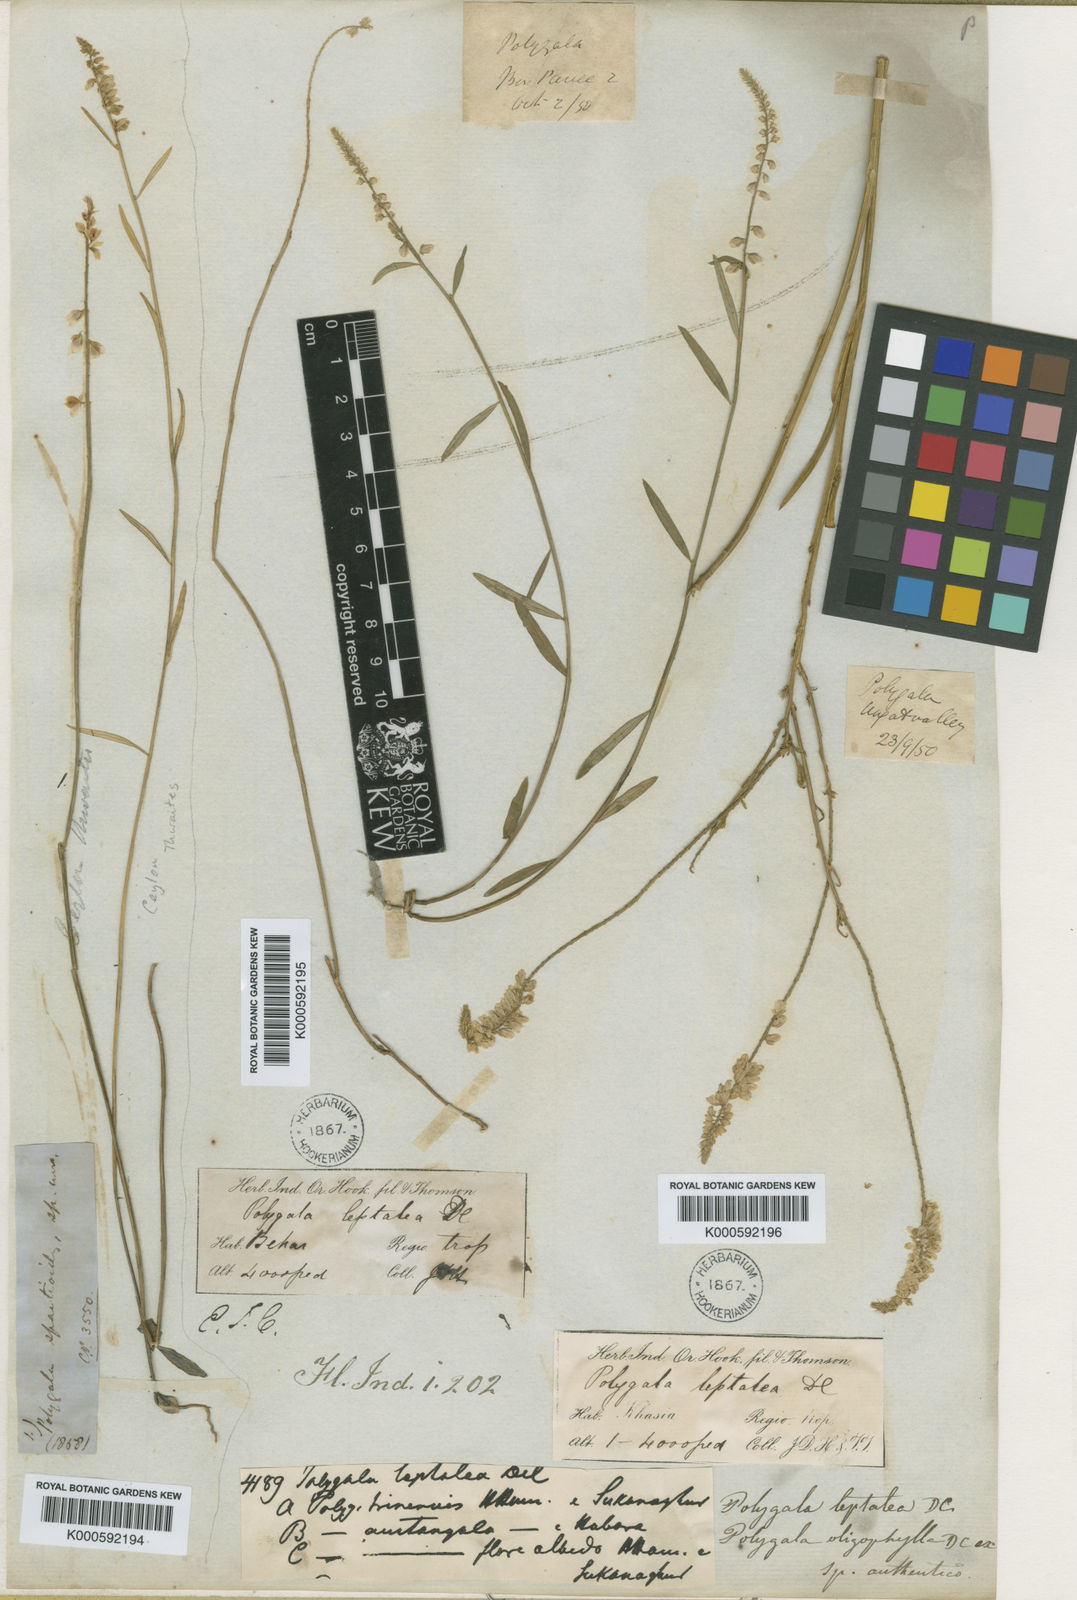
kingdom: Plantae
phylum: Tracheophyta
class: Magnoliopsida
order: Fabales
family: Polygalaceae
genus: Polygala
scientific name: Polygala longifolia
